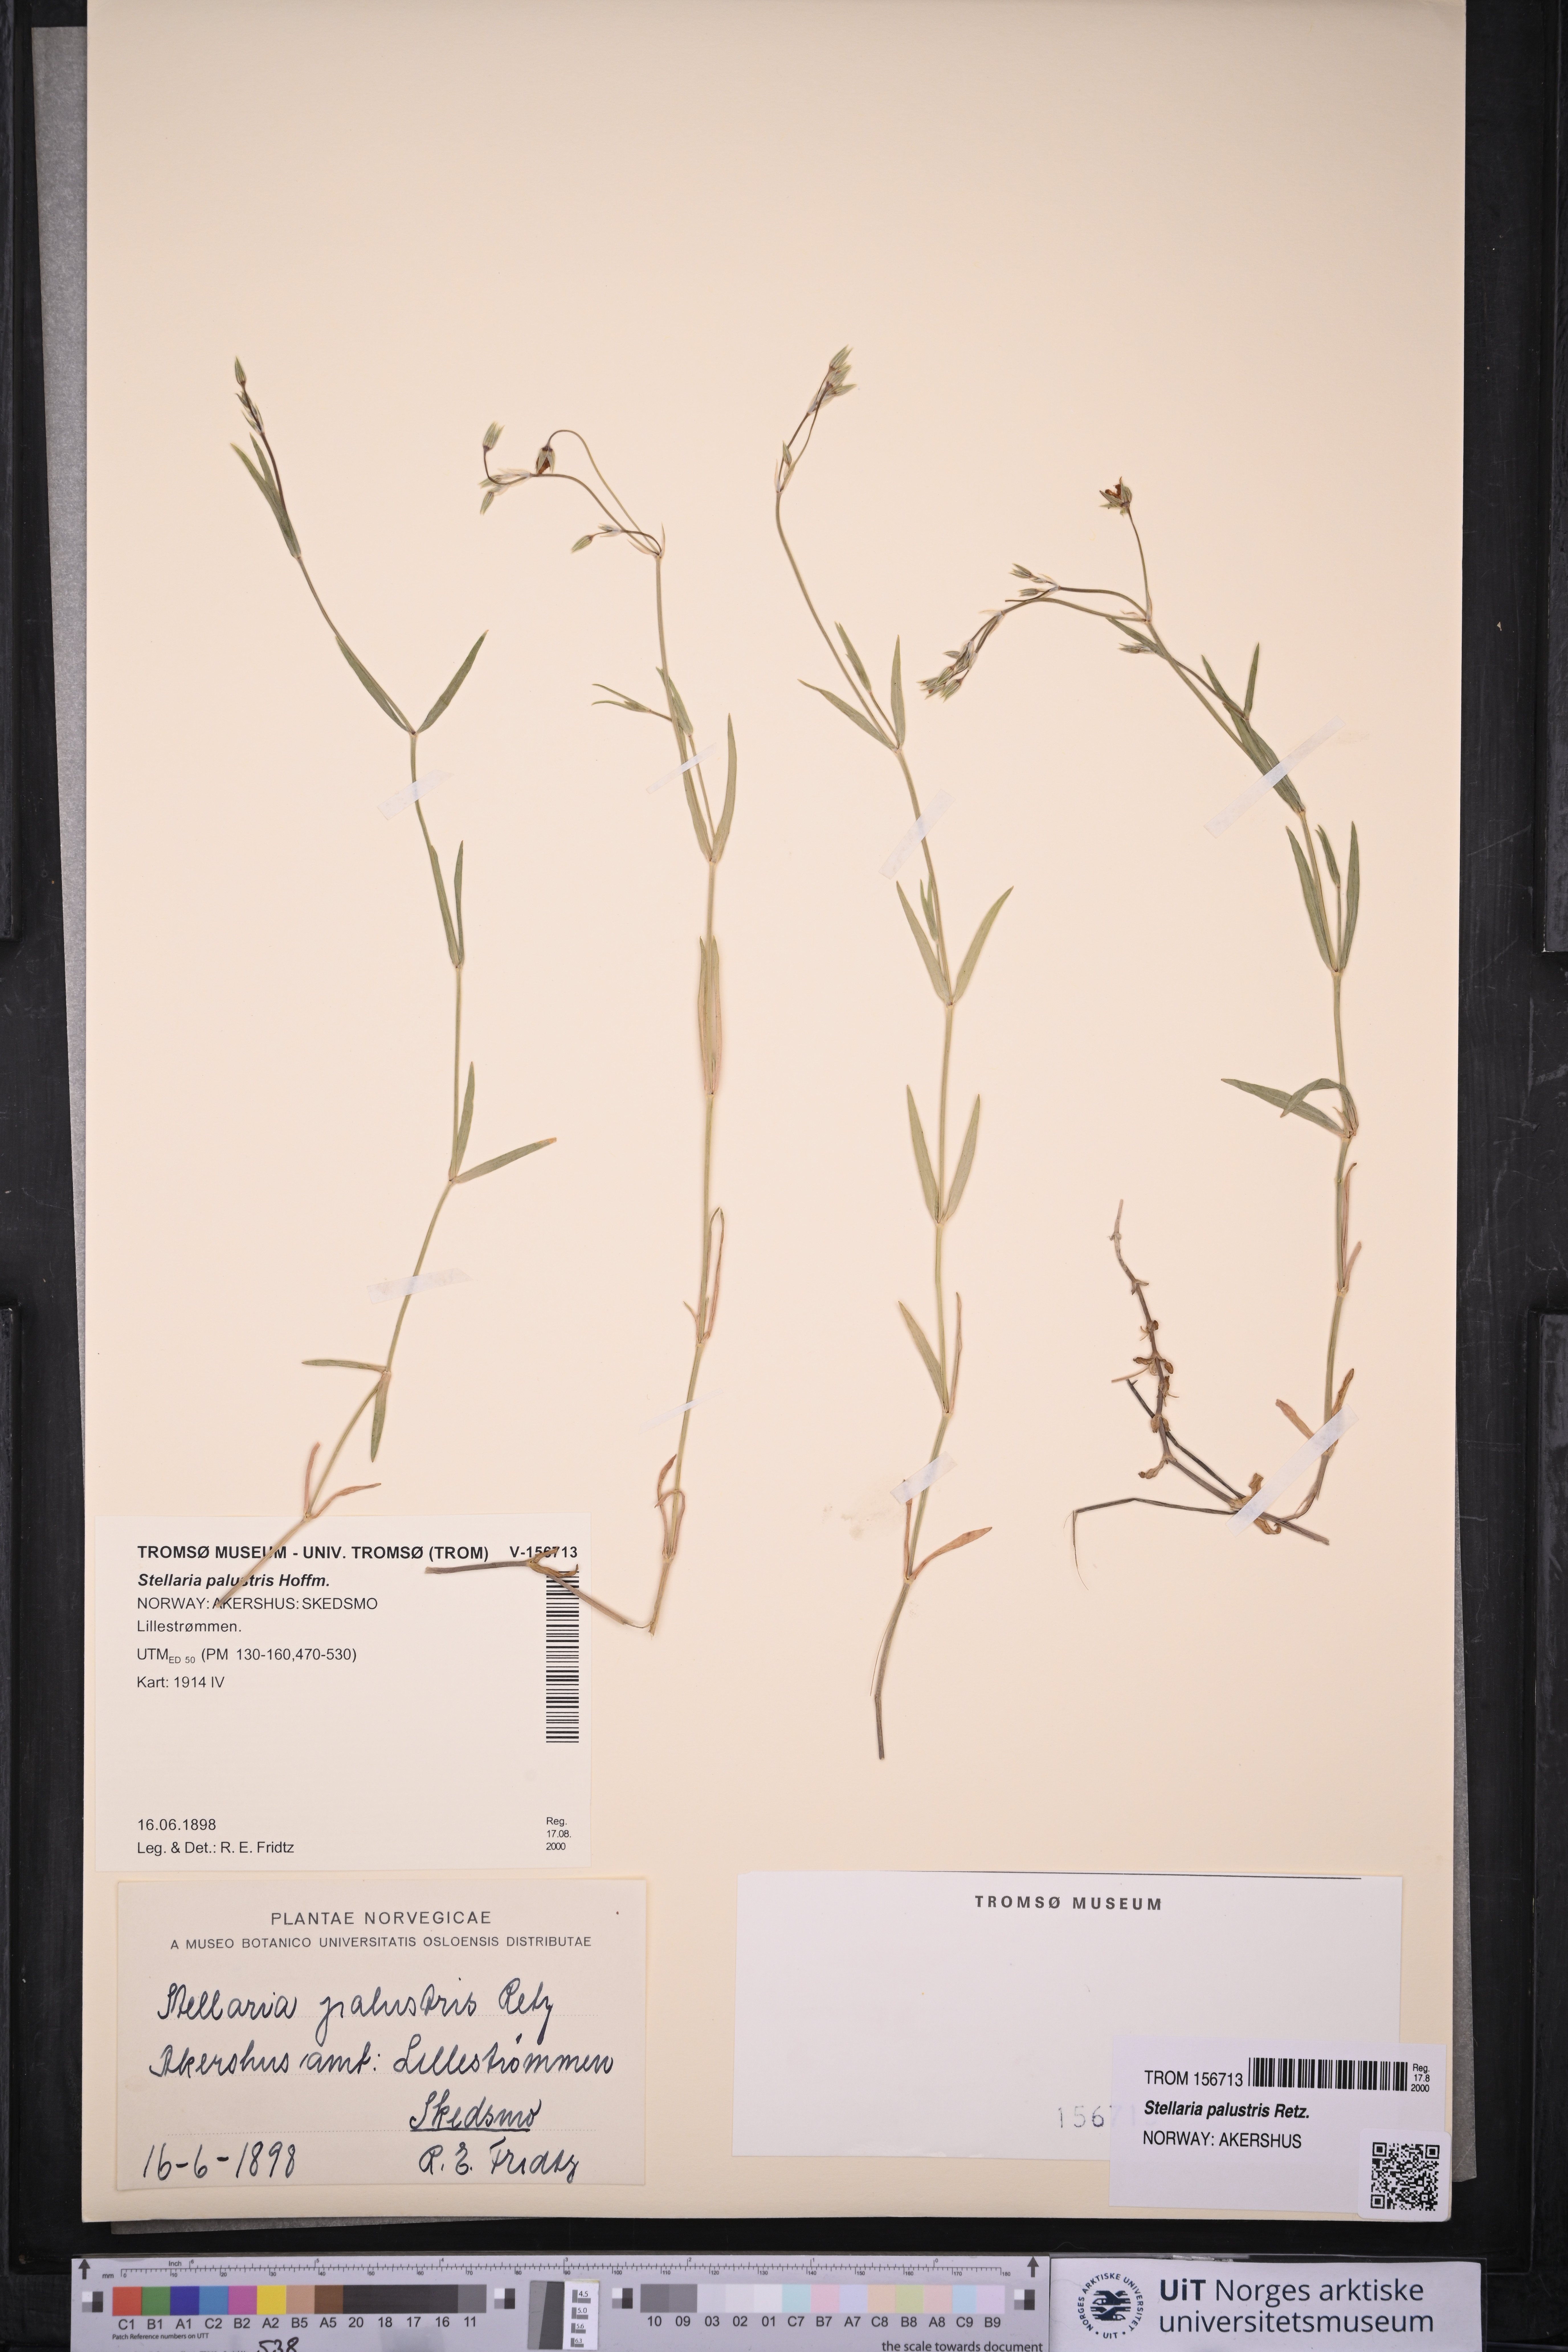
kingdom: Plantae
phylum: Tracheophyta
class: Magnoliopsida
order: Caryophyllales
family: Caryophyllaceae
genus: Stellaria
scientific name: Stellaria palustris
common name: Marsh stitchwort
